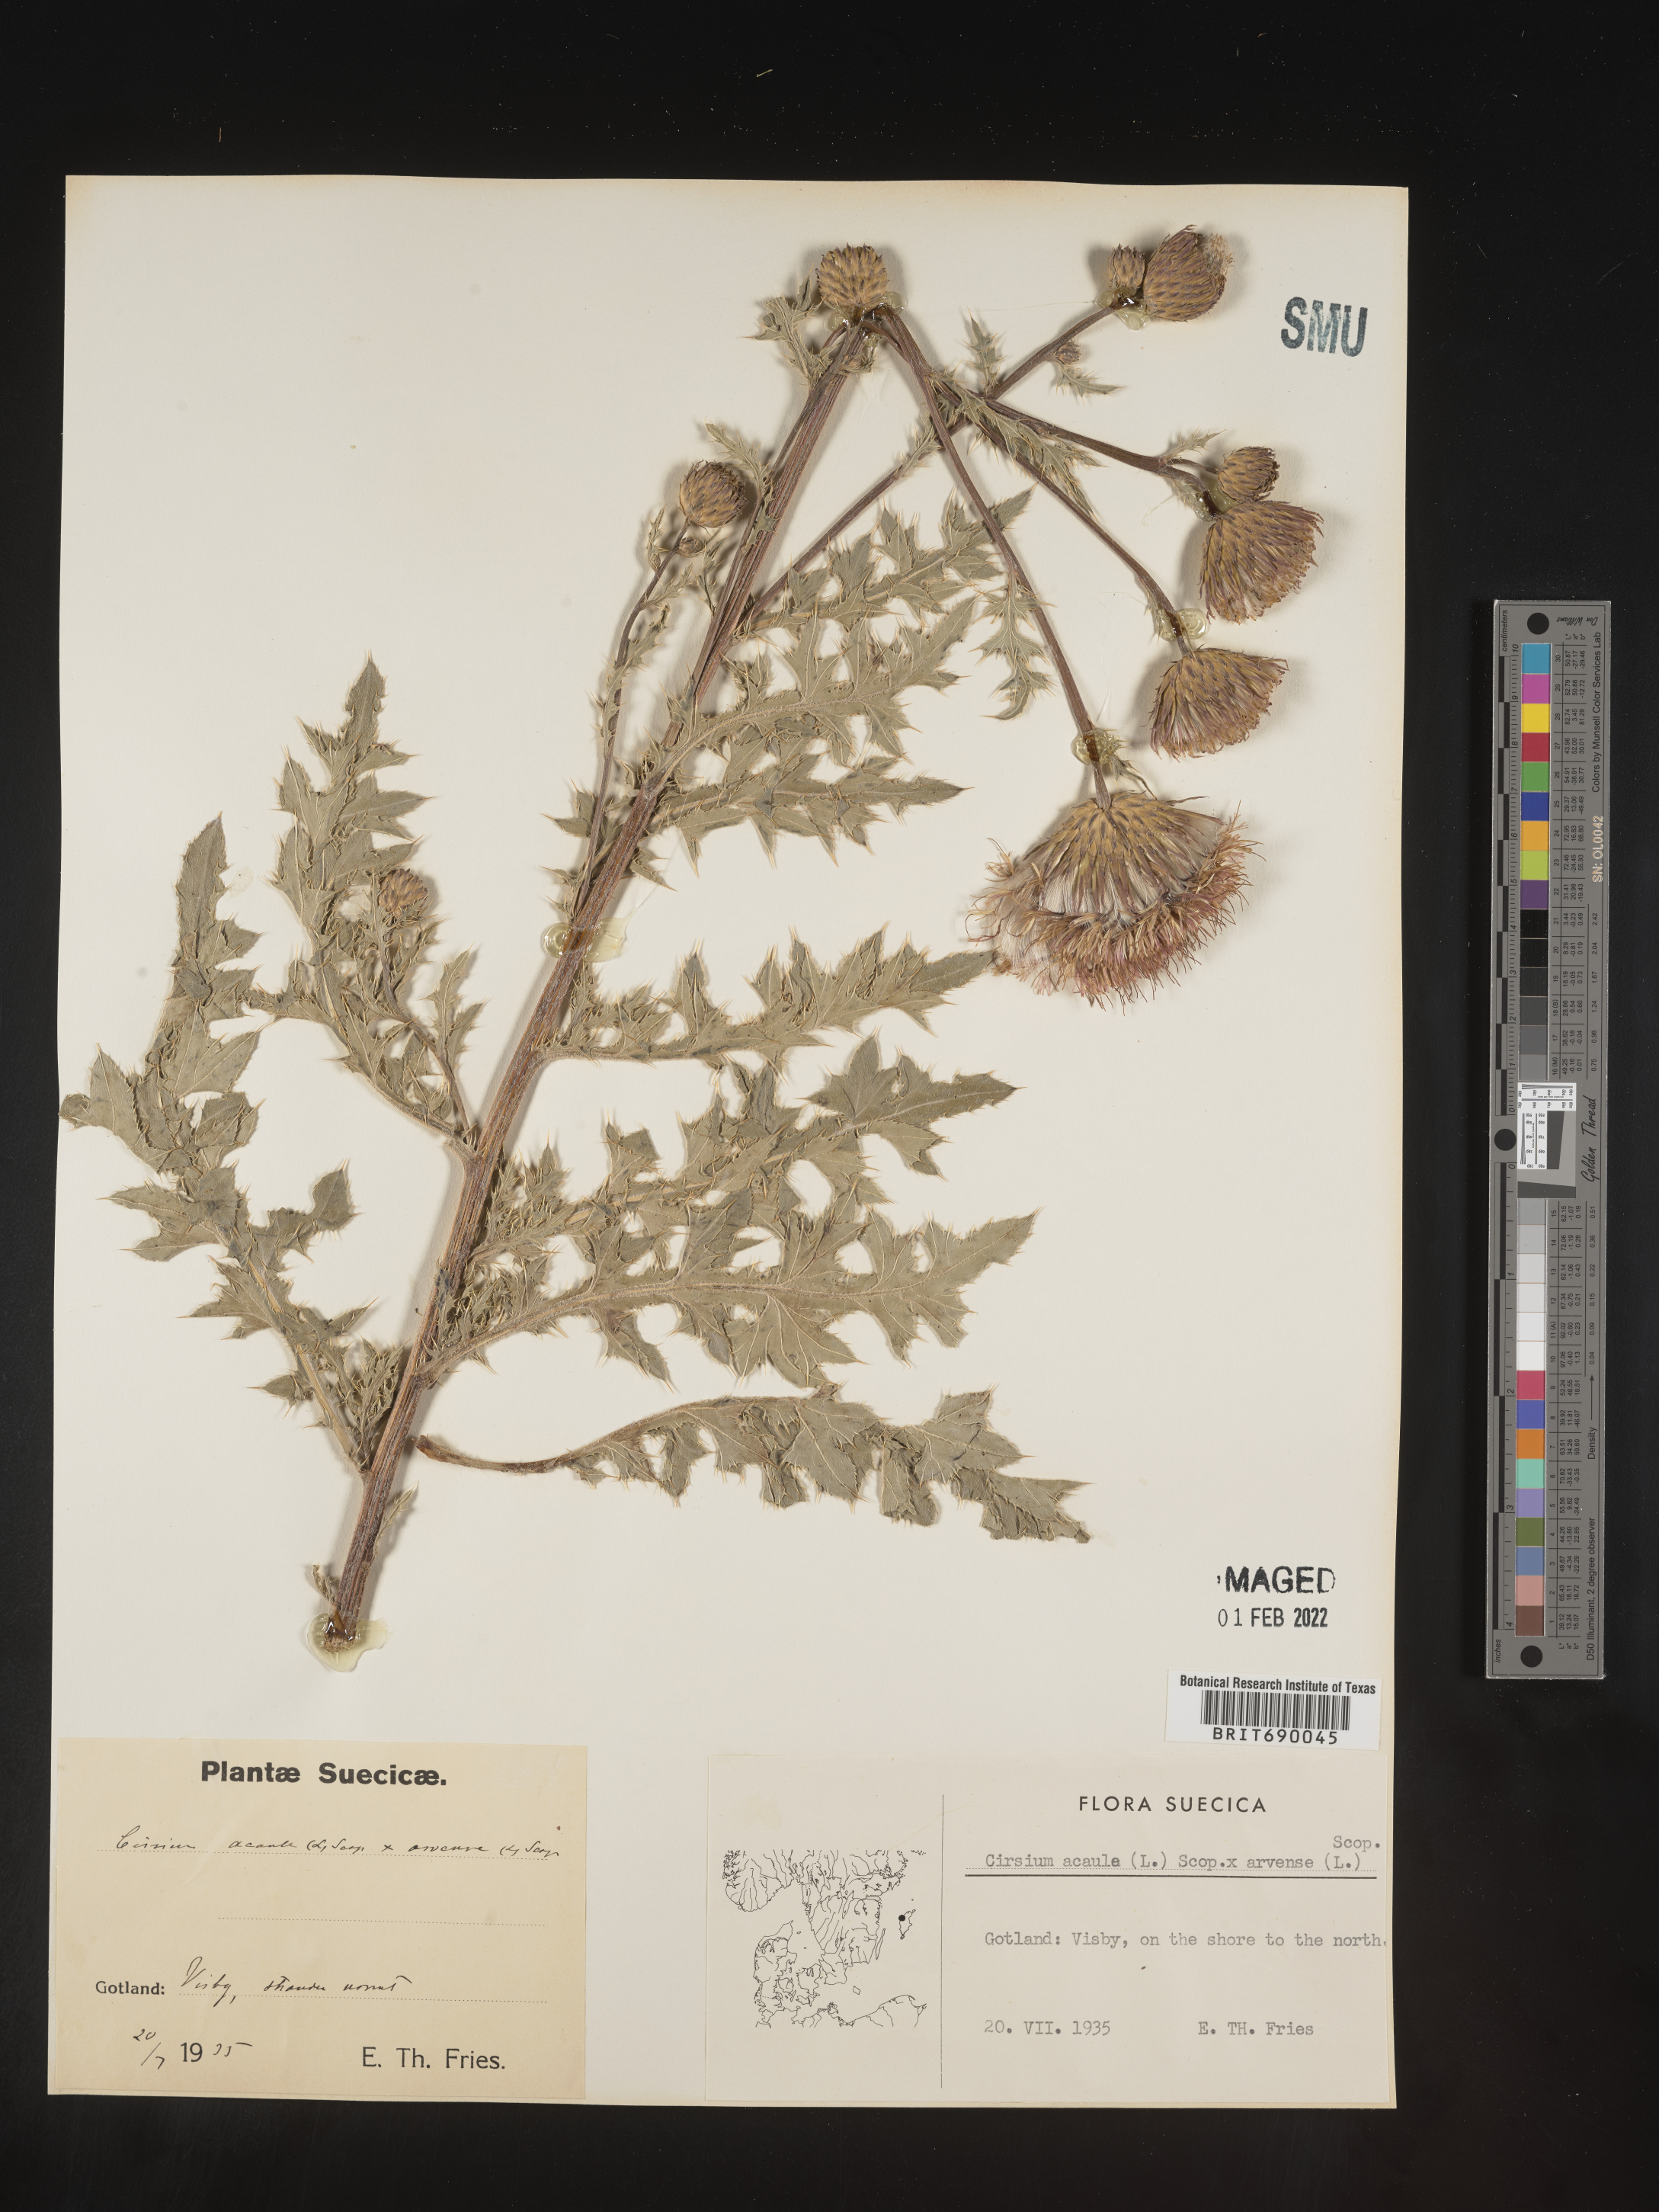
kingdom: Plantae
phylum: Tracheophyta
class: Magnoliopsida
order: Asterales
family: Asteraceae
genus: Cirsium
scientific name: Cirsium
